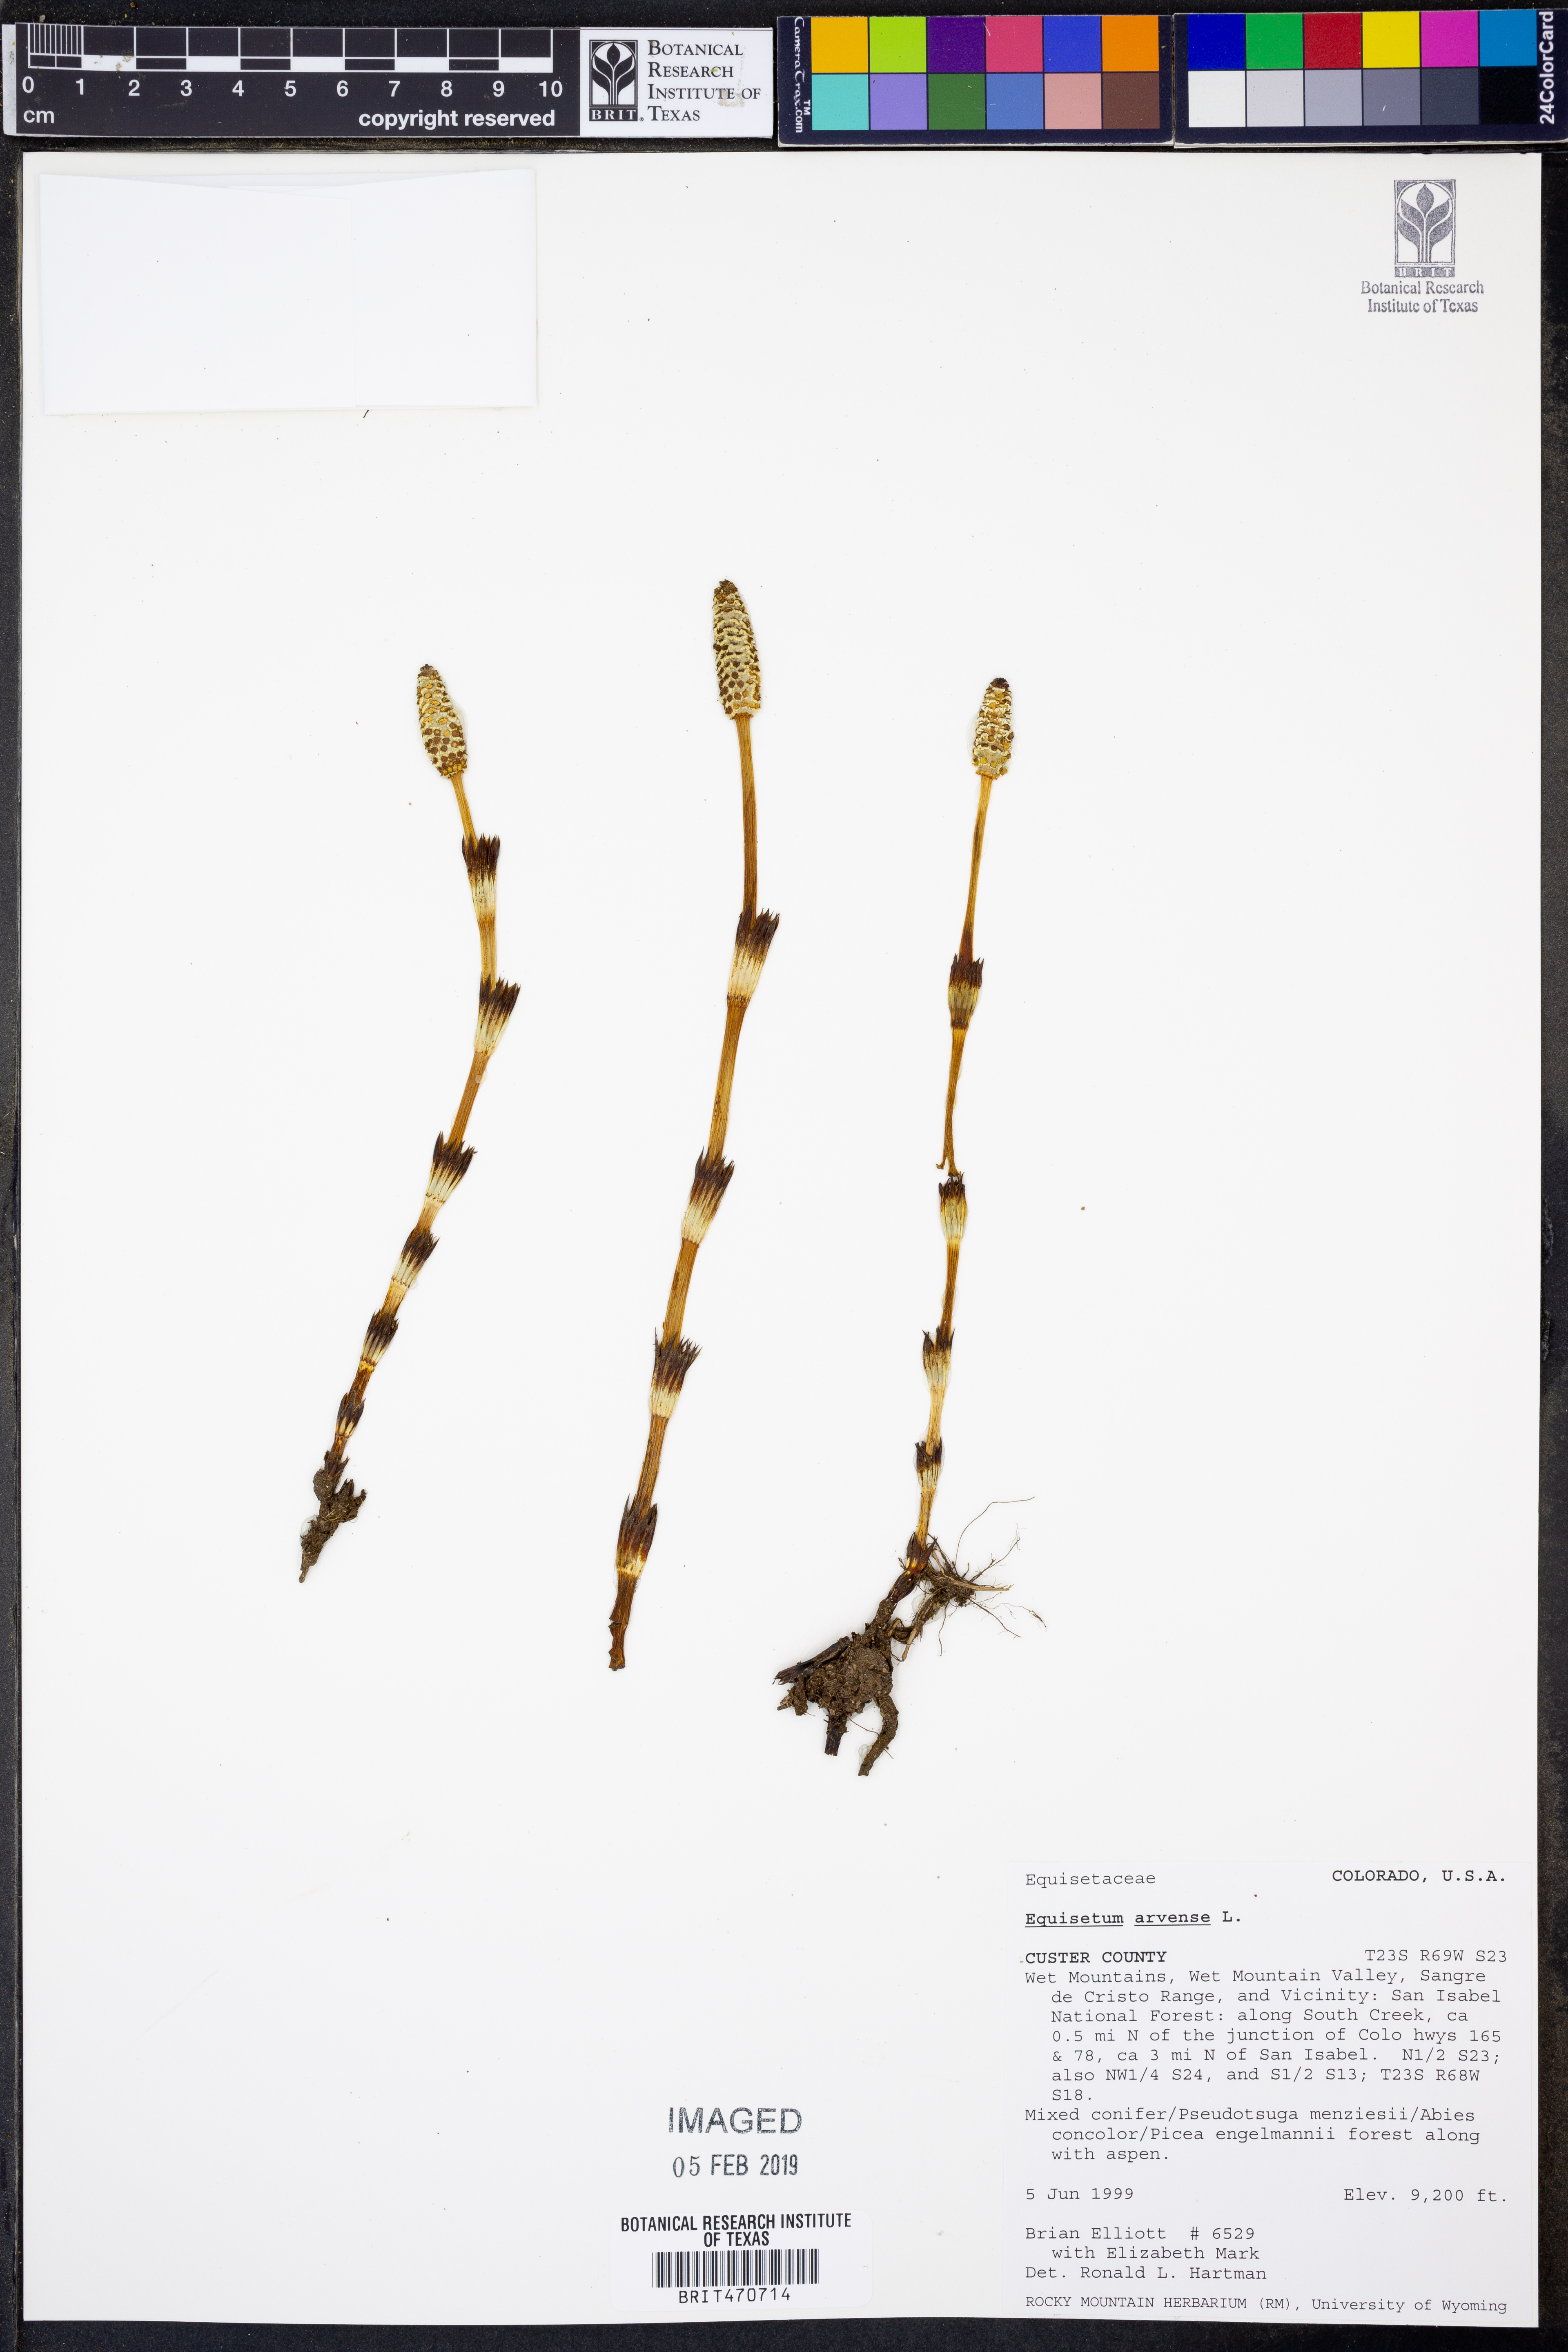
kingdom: Plantae
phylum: Tracheophyta
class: Polypodiopsida
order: Equisetales
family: Equisetaceae
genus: Equisetum
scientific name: Equisetum arvense
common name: Field horsetail
